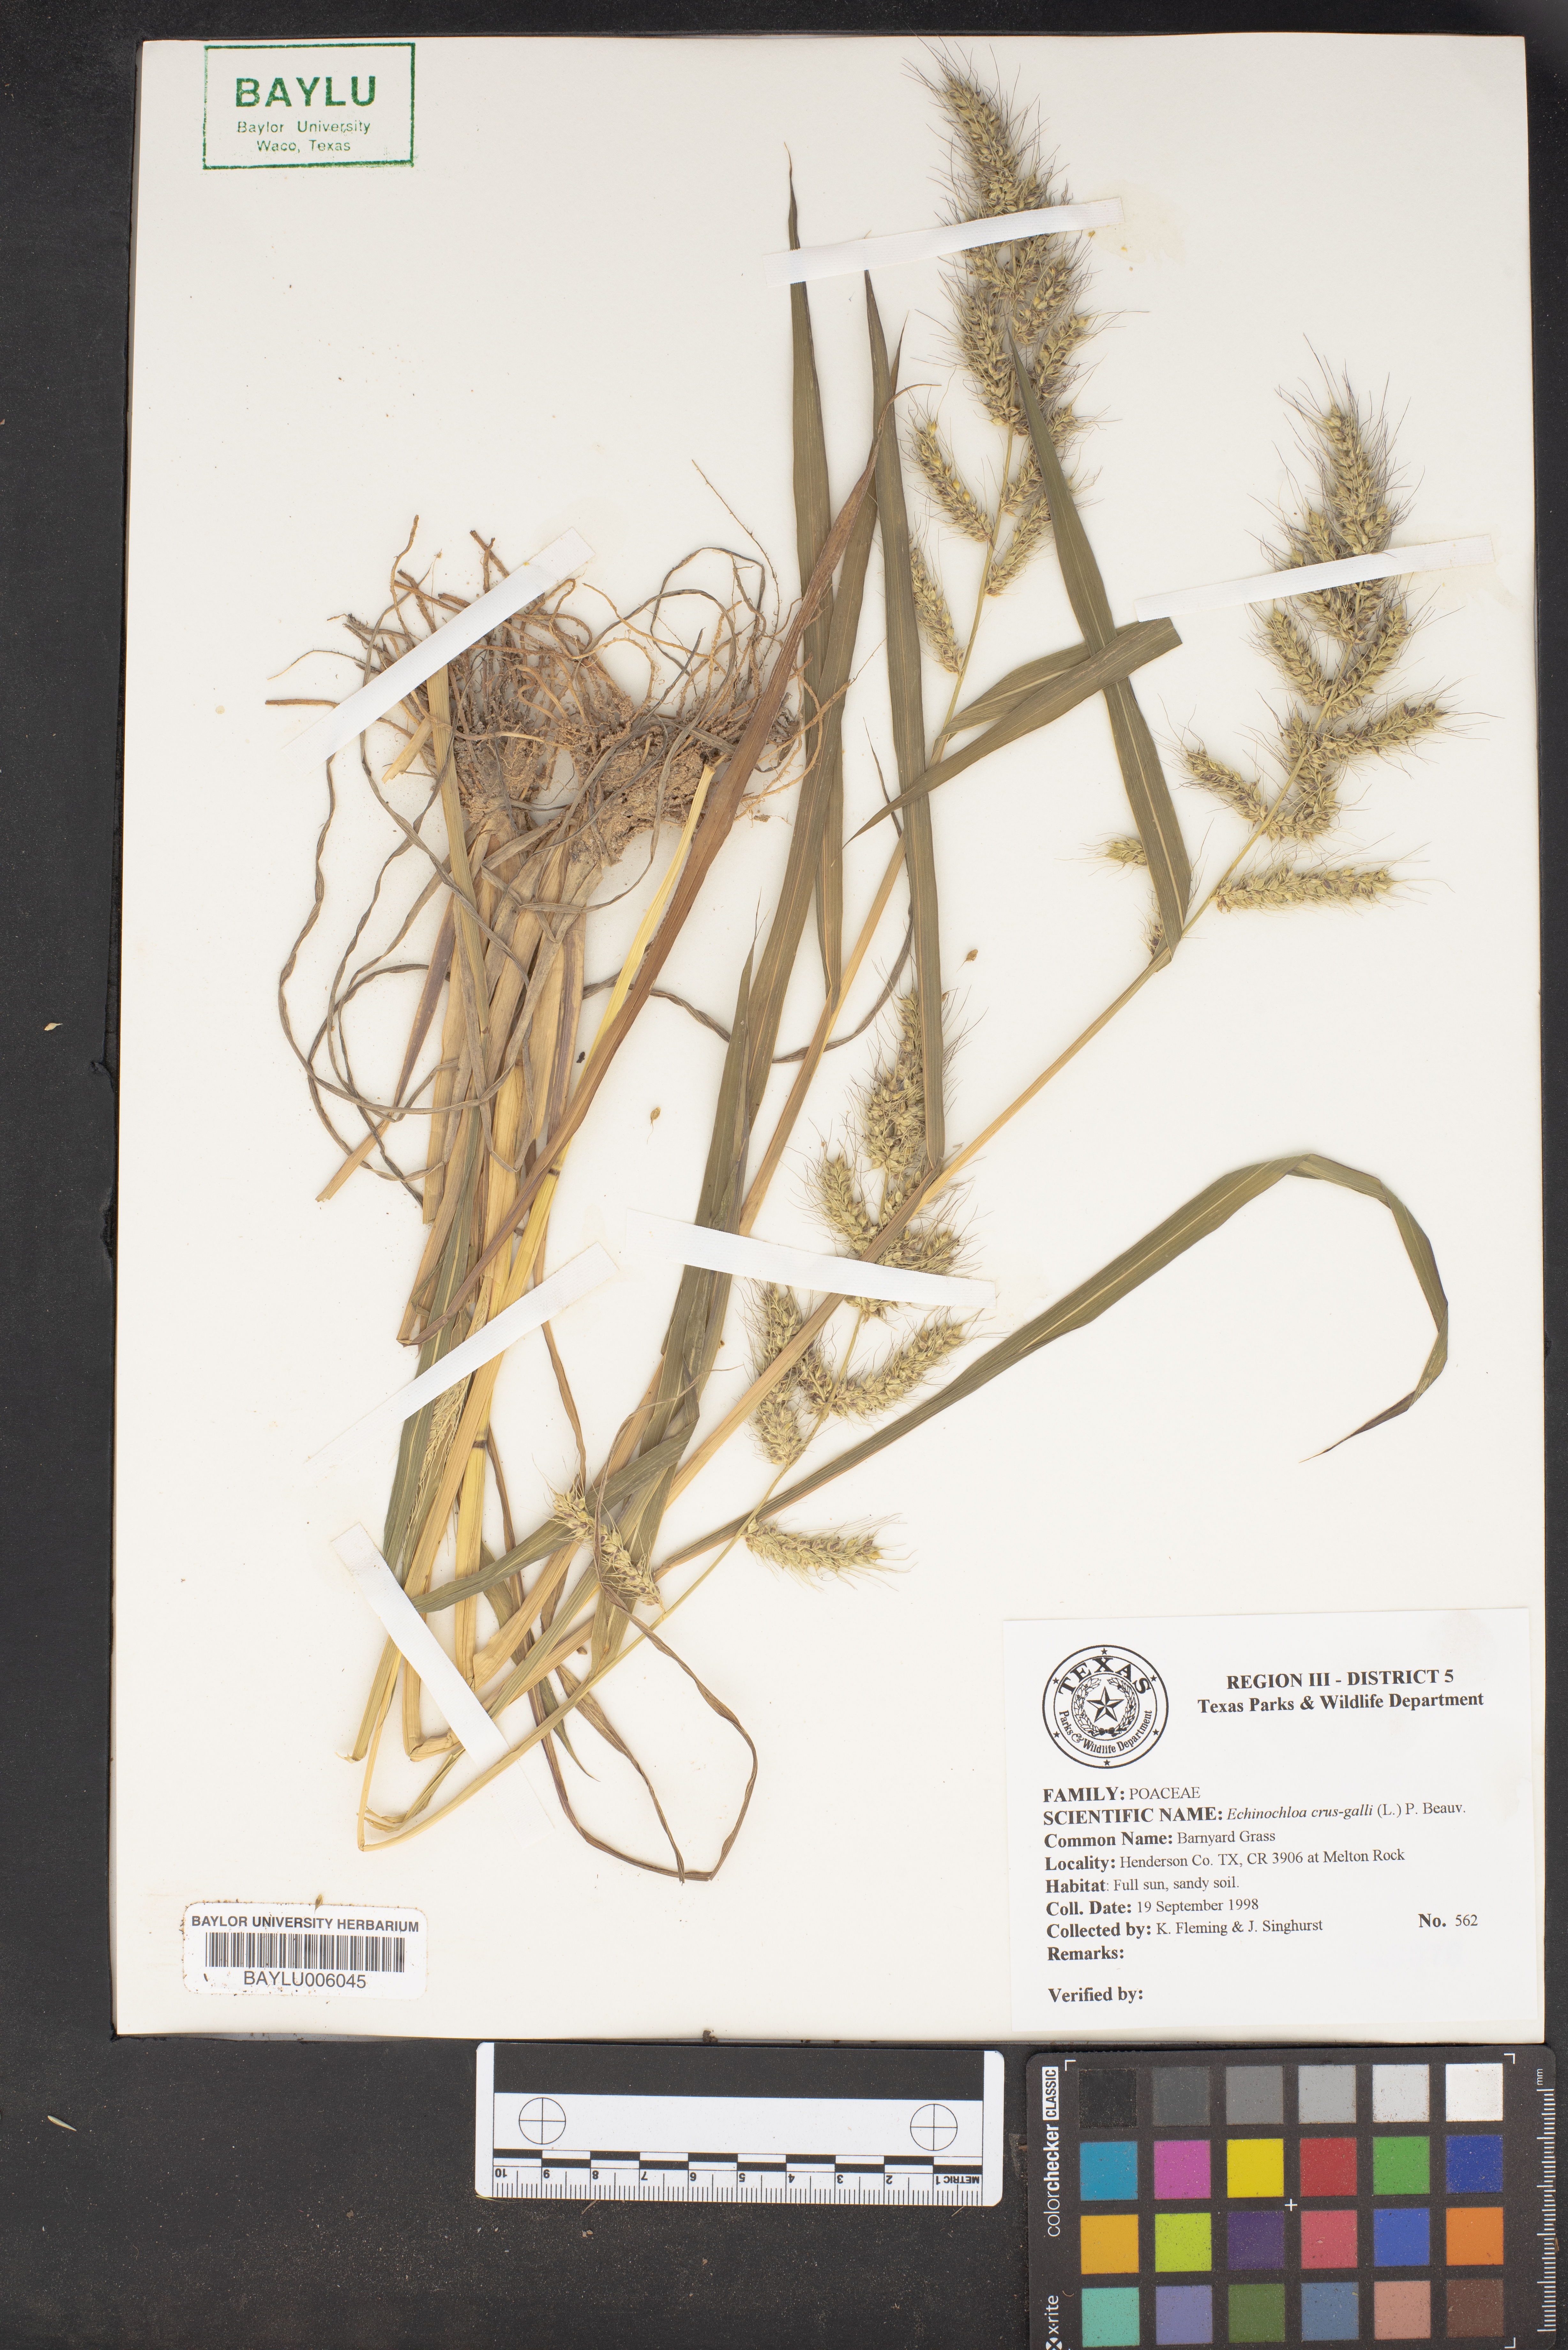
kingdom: Plantae
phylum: Tracheophyta
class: Liliopsida
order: Poales
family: Poaceae
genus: Echinochloa
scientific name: Echinochloa crus-galli
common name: Cockspur
